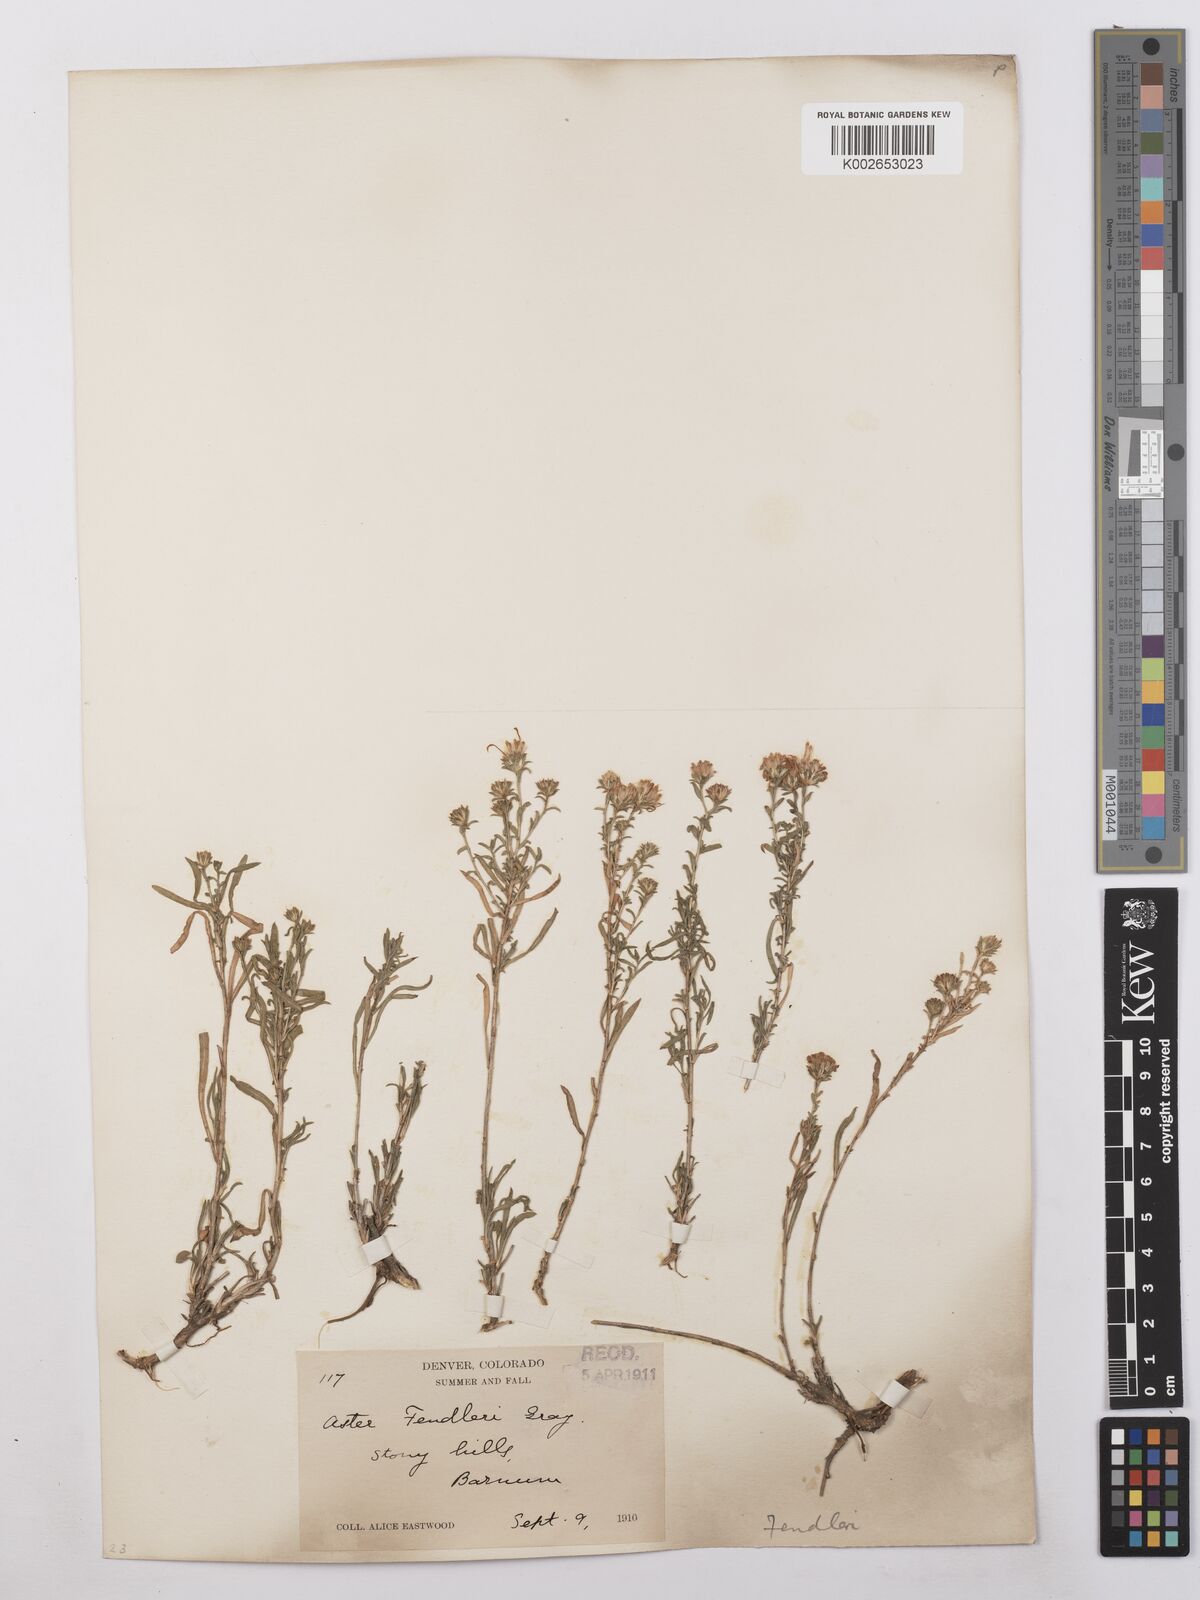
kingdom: Plantae
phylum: Tracheophyta
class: Magnoliopsida
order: Asterales
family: Asteraceae
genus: Symphyotrichum
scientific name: Symphyotrichum fendleri
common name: Fendler's aster
